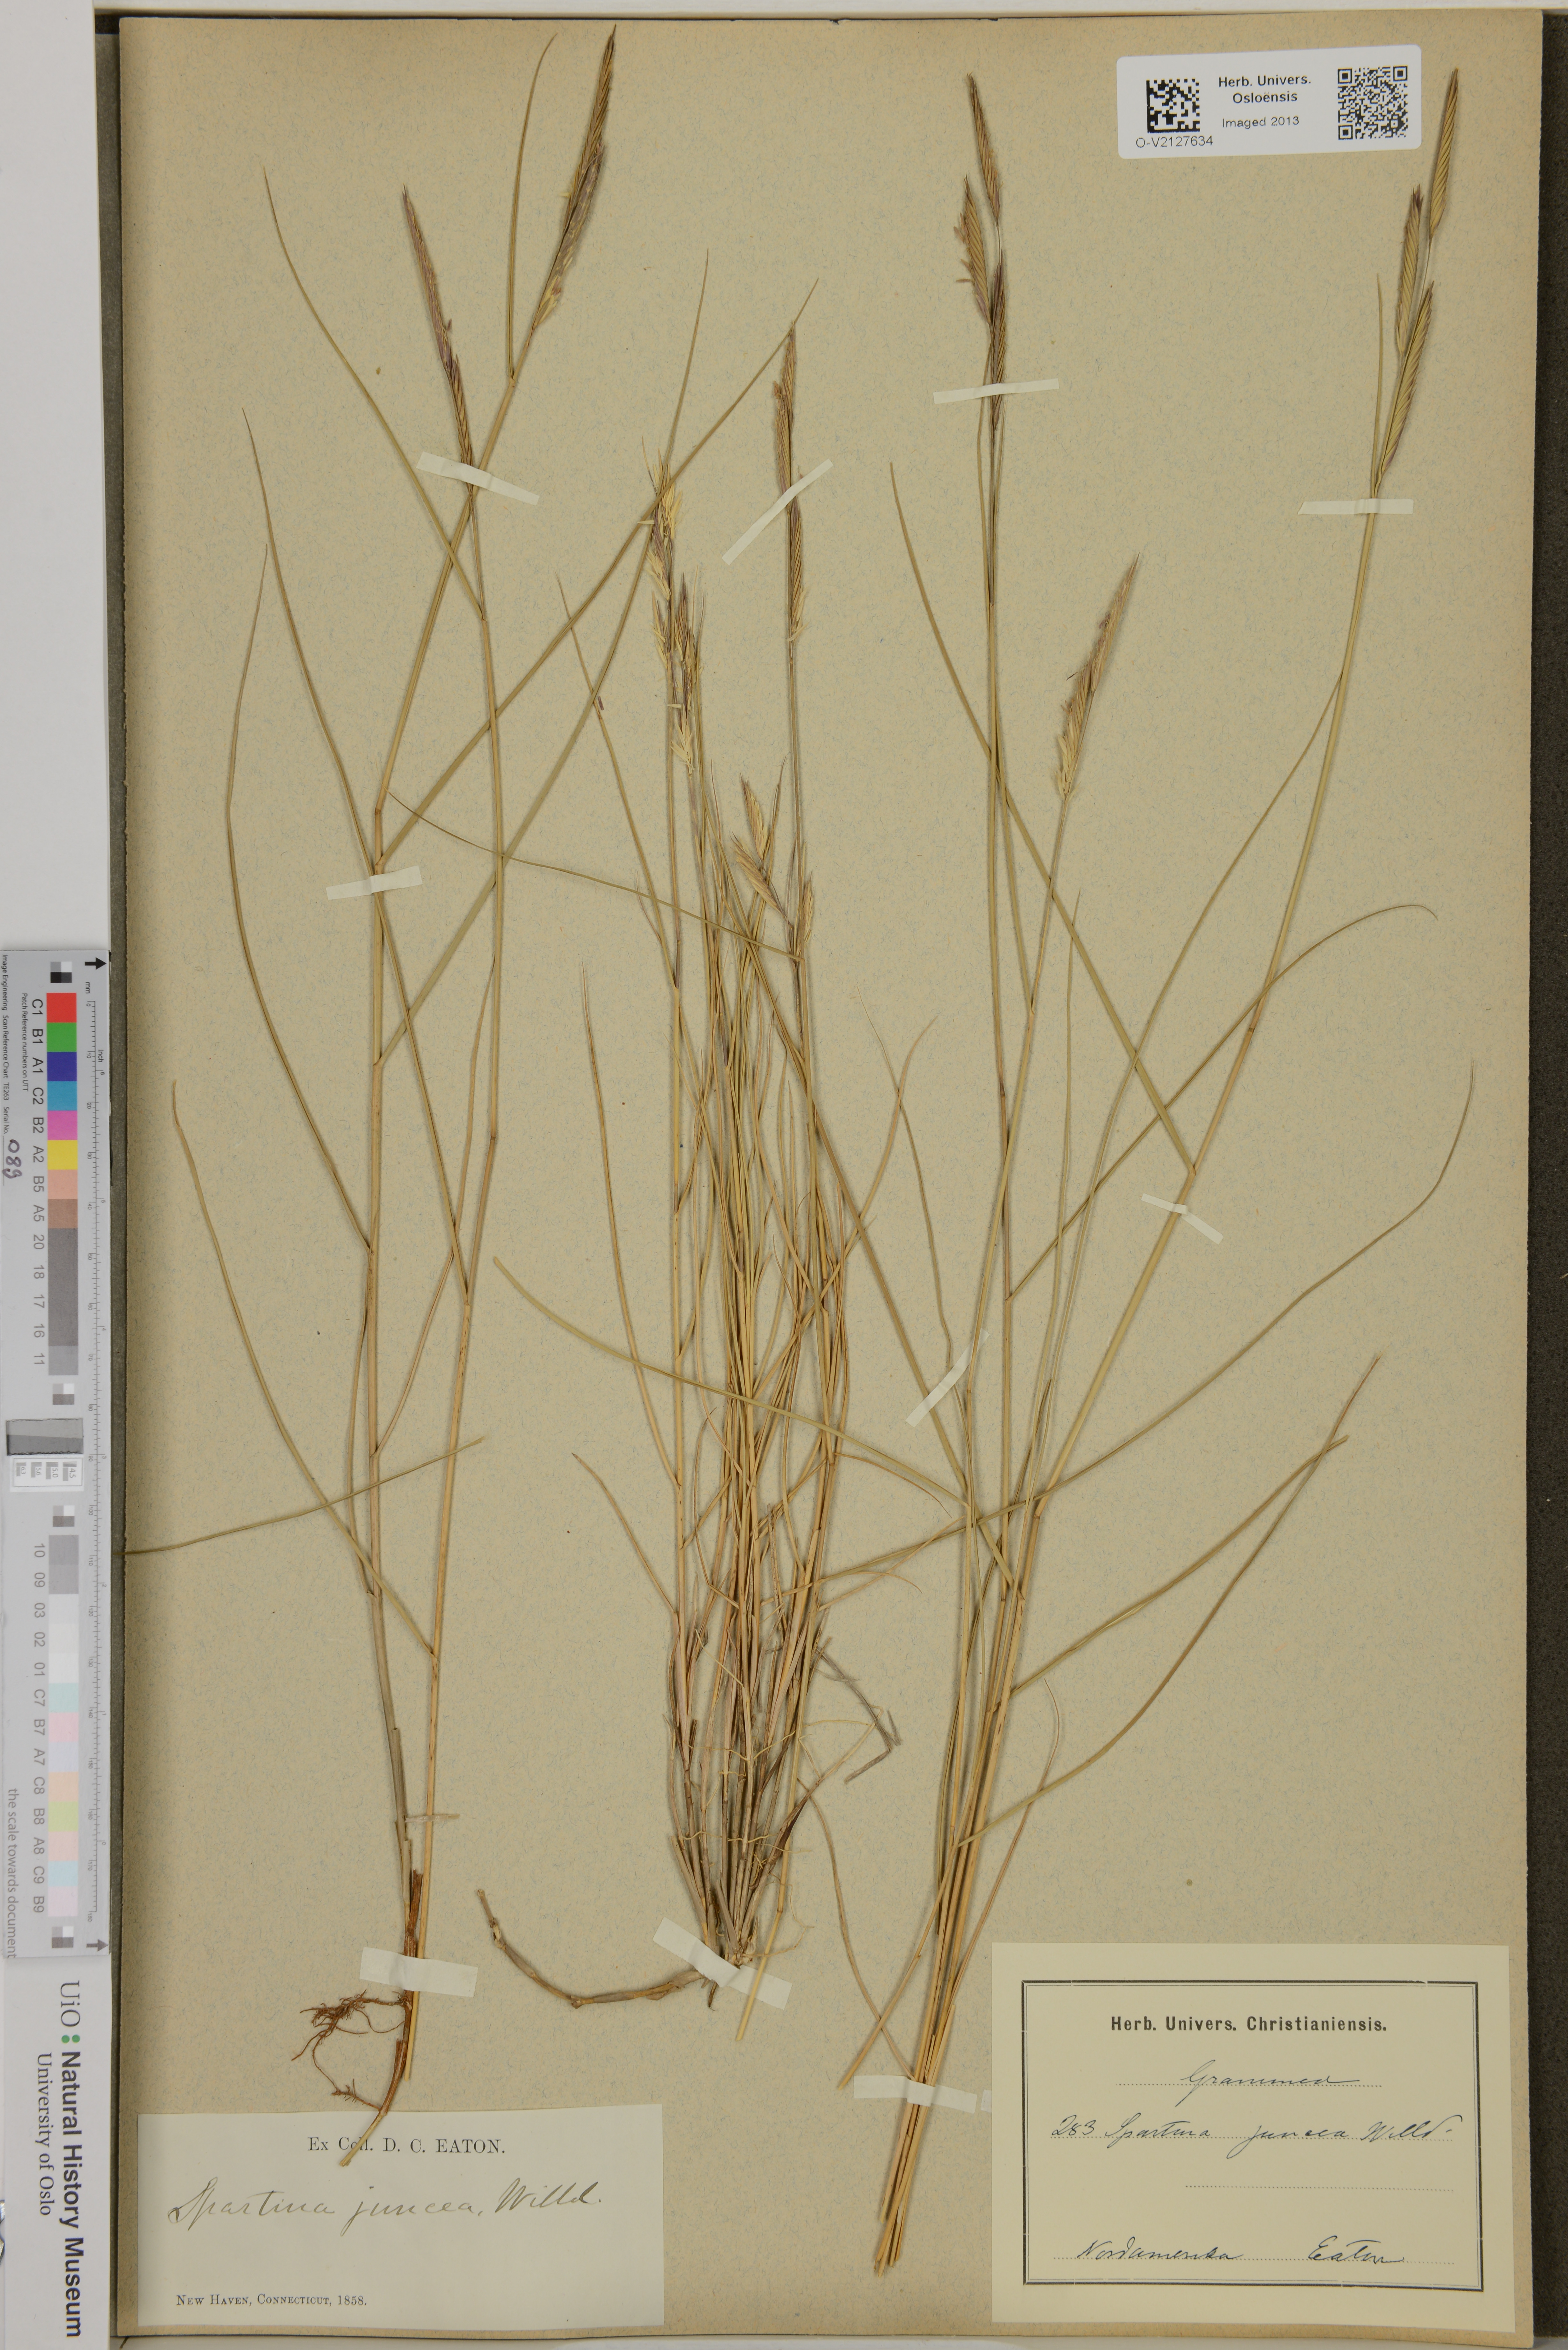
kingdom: Plantae
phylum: Tracheophyta
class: Liliopsida
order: Poales
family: Poaceae
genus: Sporobolus
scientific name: Sporobolus pumilus
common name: Highwater grass
